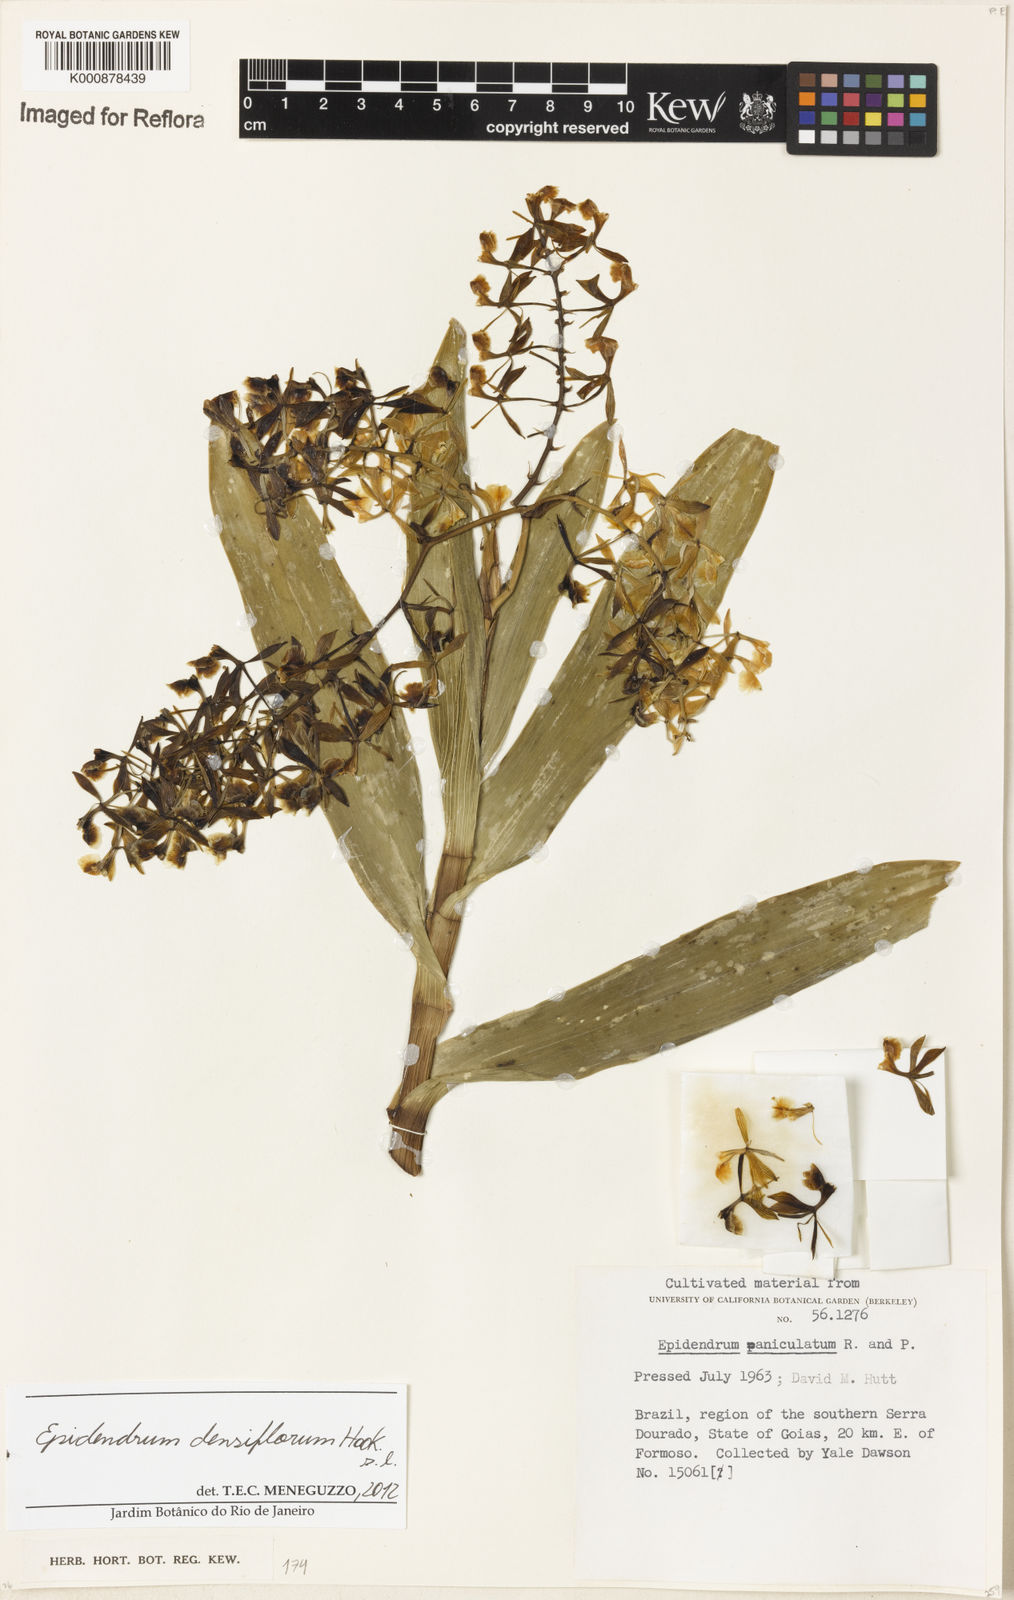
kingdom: Plantae
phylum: Tracheophyta
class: Liliopsida
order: Asparagales
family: Orchidaceae
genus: Epidendrum
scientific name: Epidendrum densiflorum
